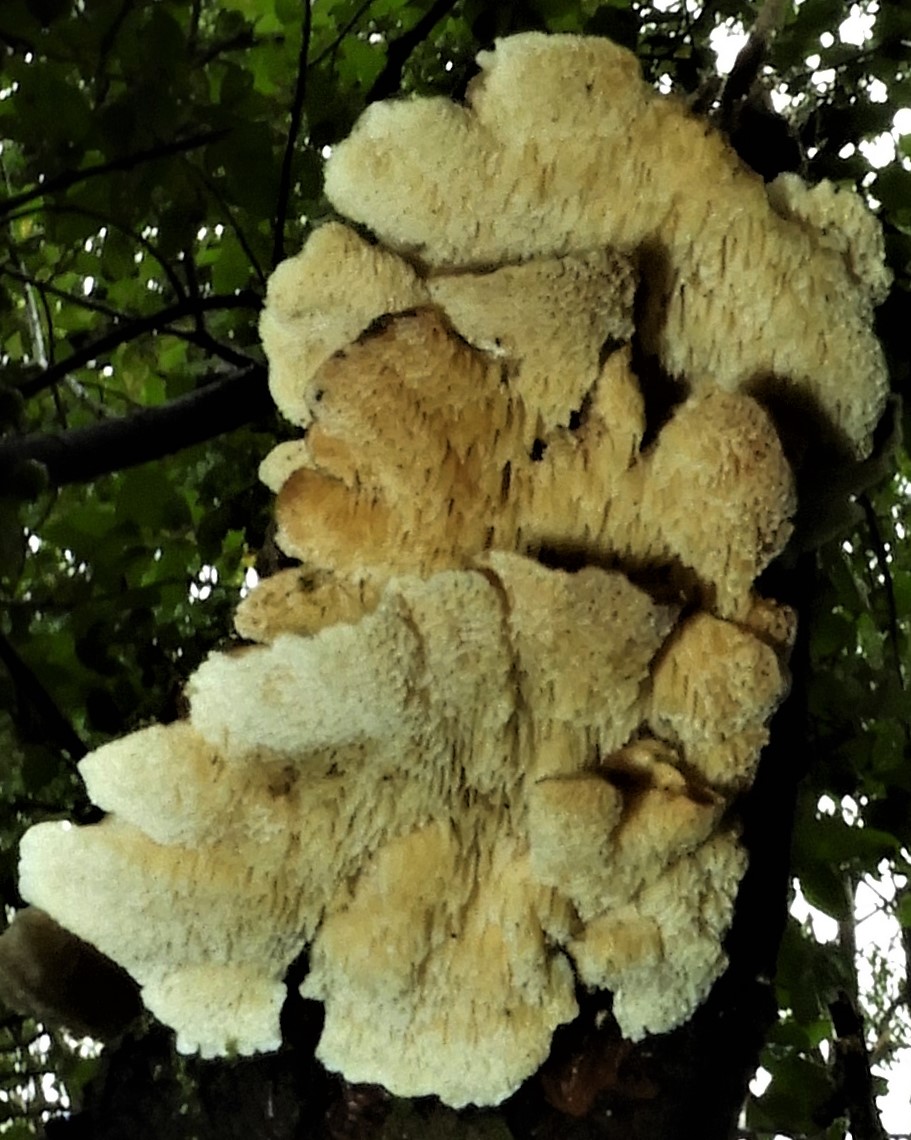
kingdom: Fungi
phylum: Basidiomycota
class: Agaricomycetes
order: Polyporales
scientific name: Polyporales
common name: poresvampordenen
